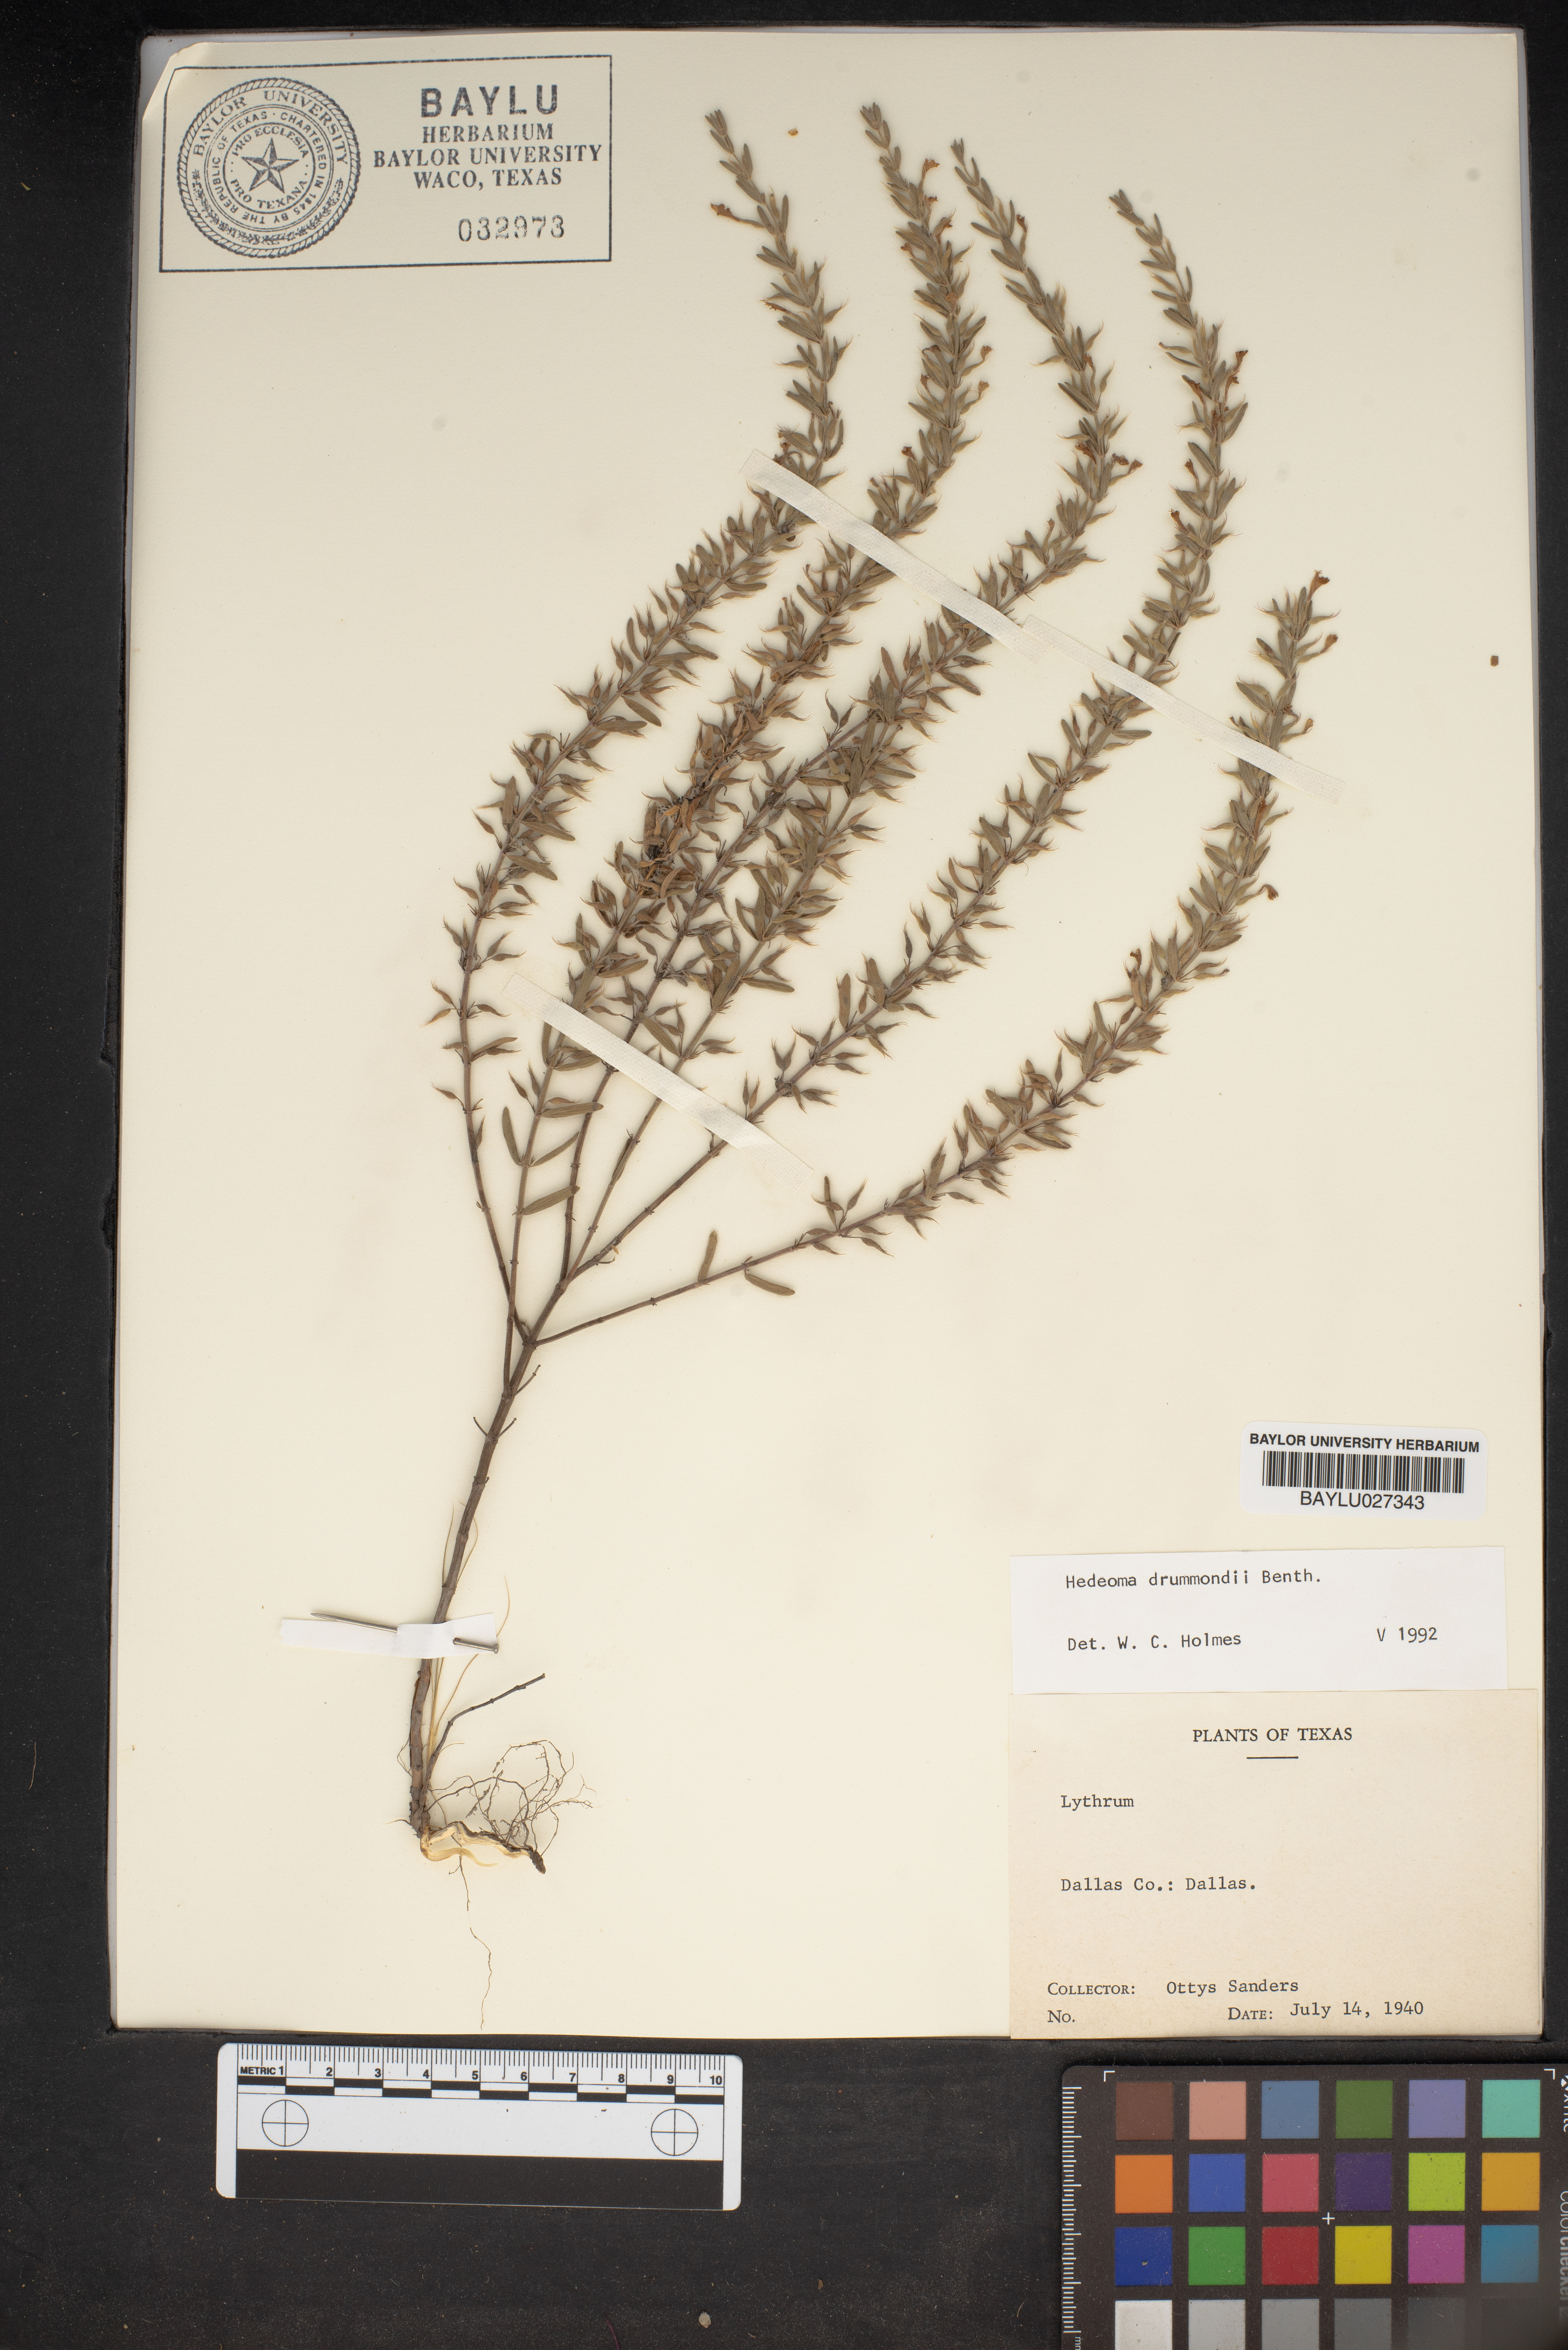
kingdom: Plantae
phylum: Tracheophyta
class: Magnoliopsida
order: Lamiales
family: Lamiaceae
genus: Hedeoma
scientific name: Hedeoma drummondii
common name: New mexico pennyroyal
